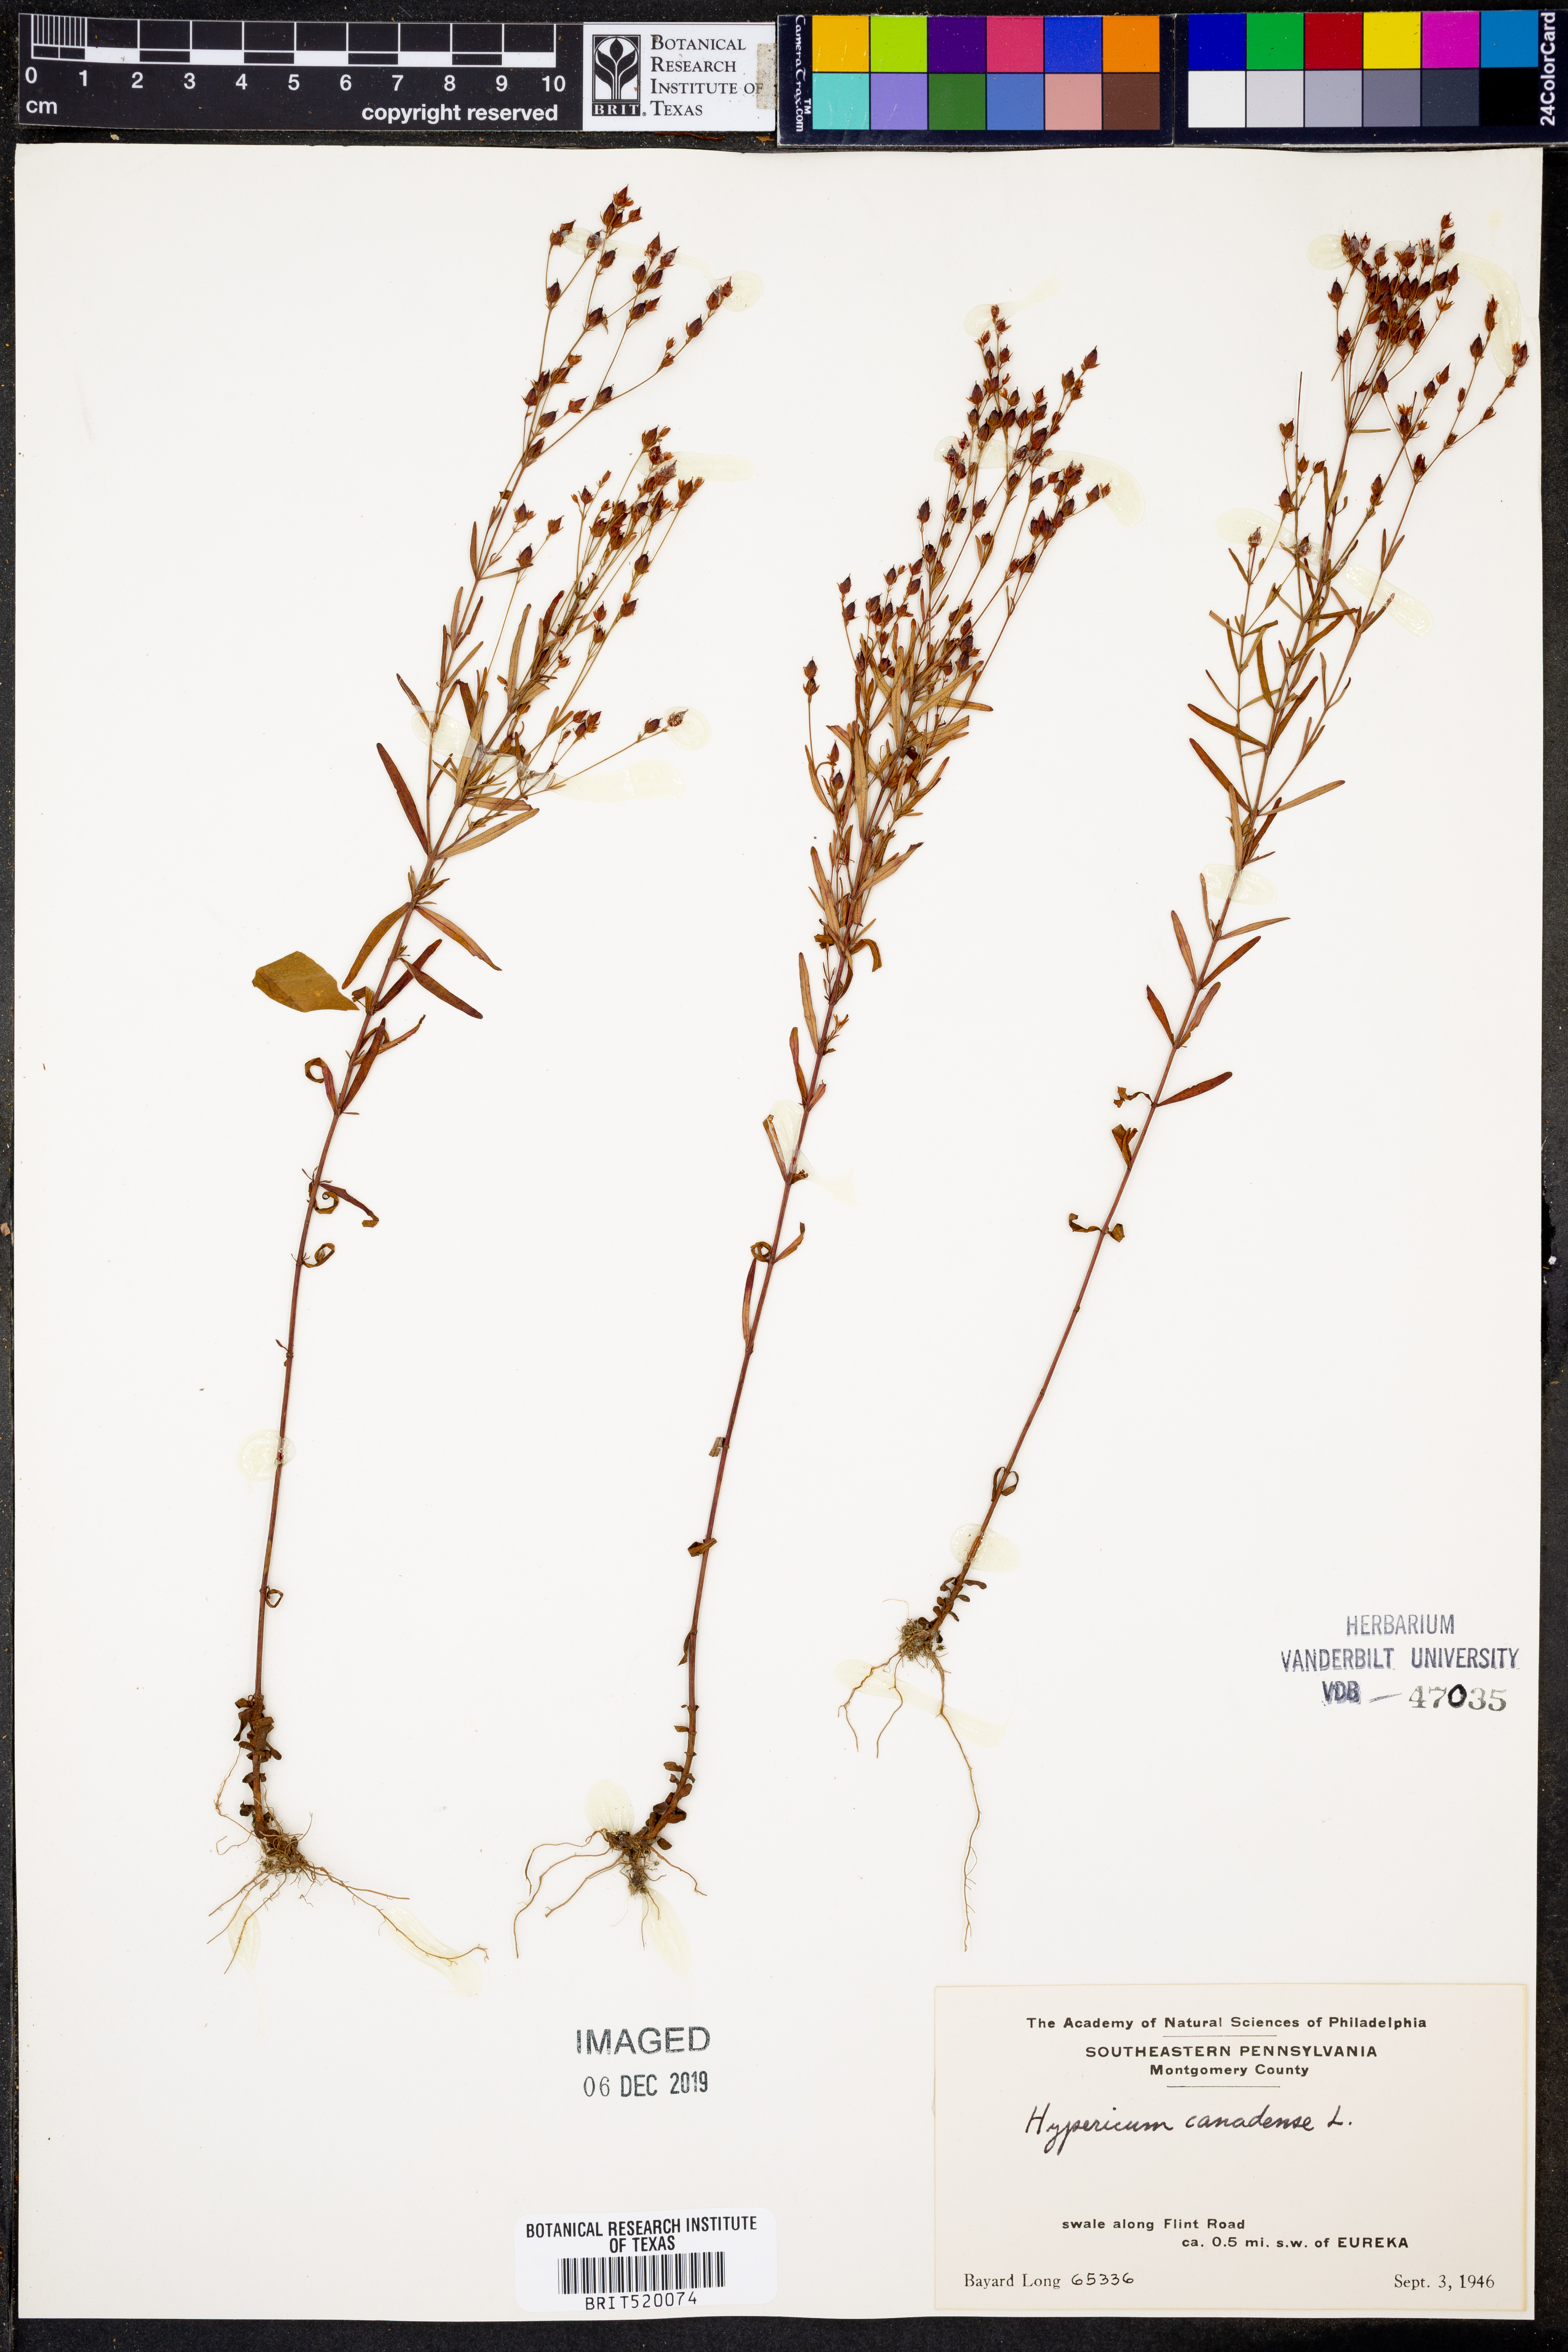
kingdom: Plantae
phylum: Tracheophyta
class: Magnoliopsida
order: Malpighiales
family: Hypericaceae
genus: Hypericum
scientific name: Hypericum canadense
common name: Irish st. john's-wort
